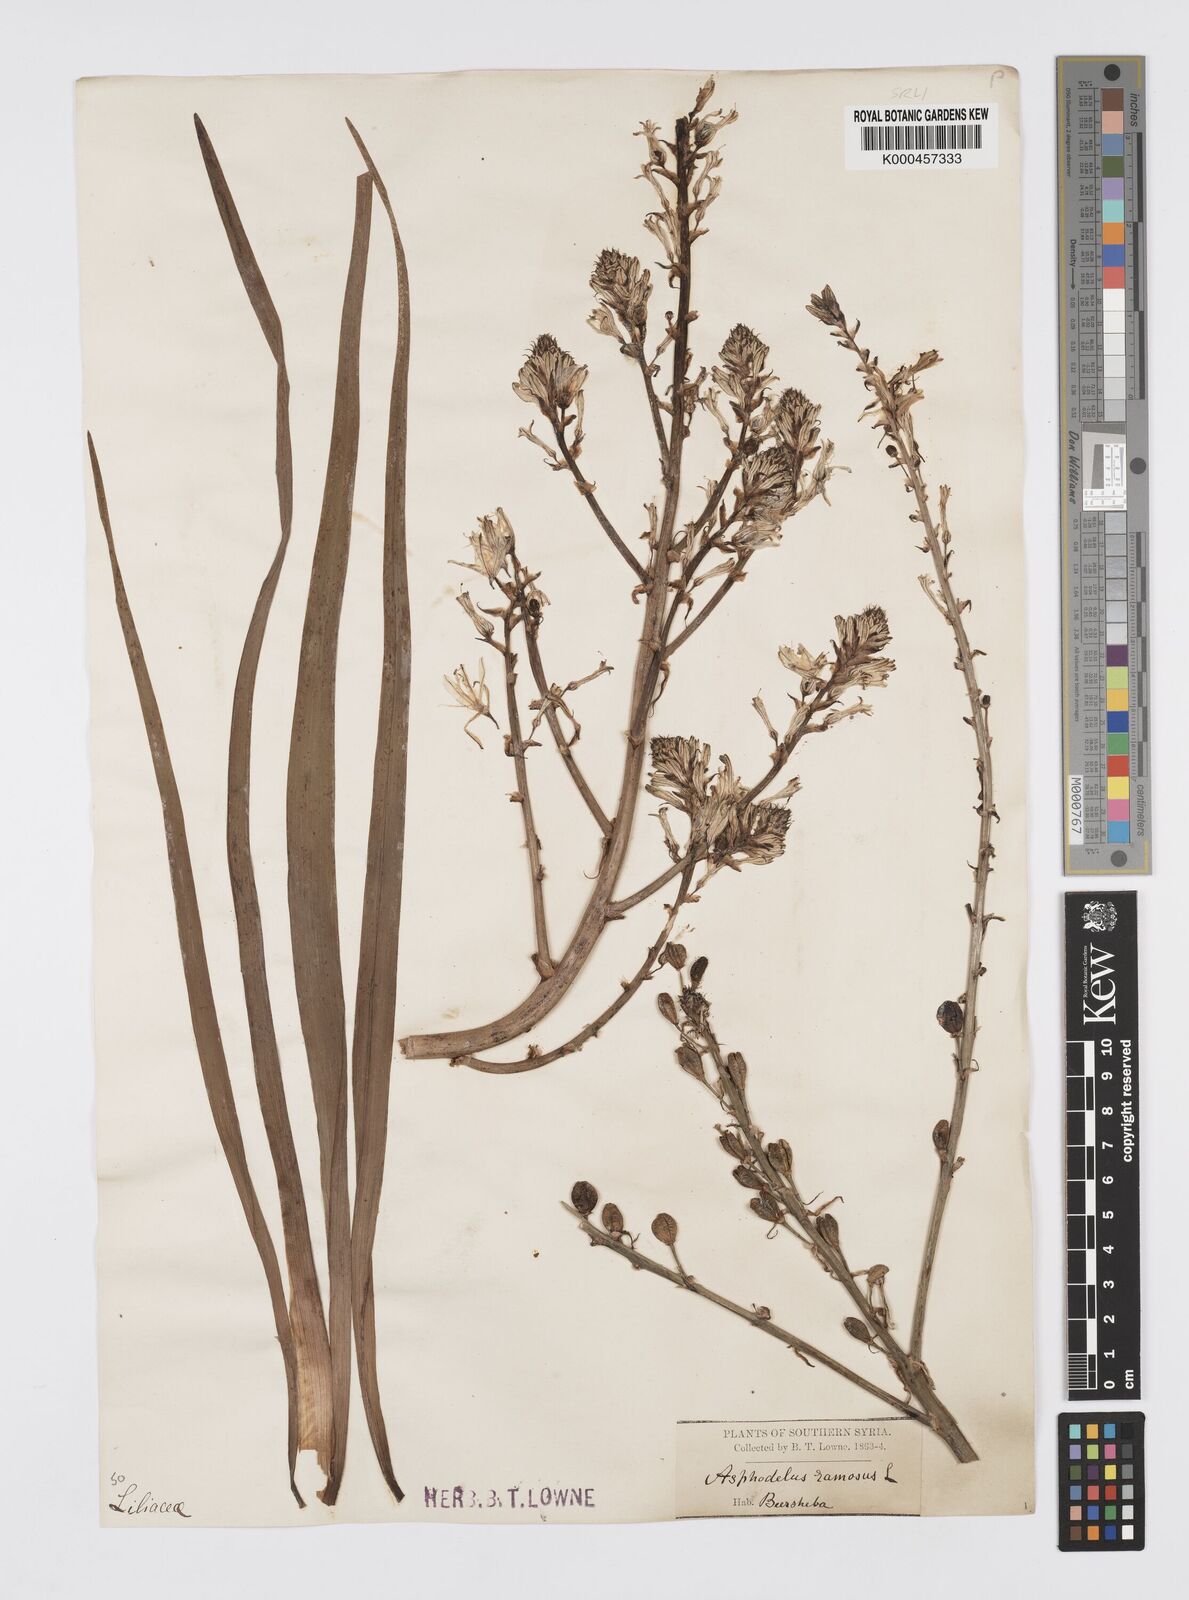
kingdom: Plantae
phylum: Tracheophyta
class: Liliopsida
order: Asparagales
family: Asphodelaceae
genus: Asphodelus
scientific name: Asphodelus aestivus
